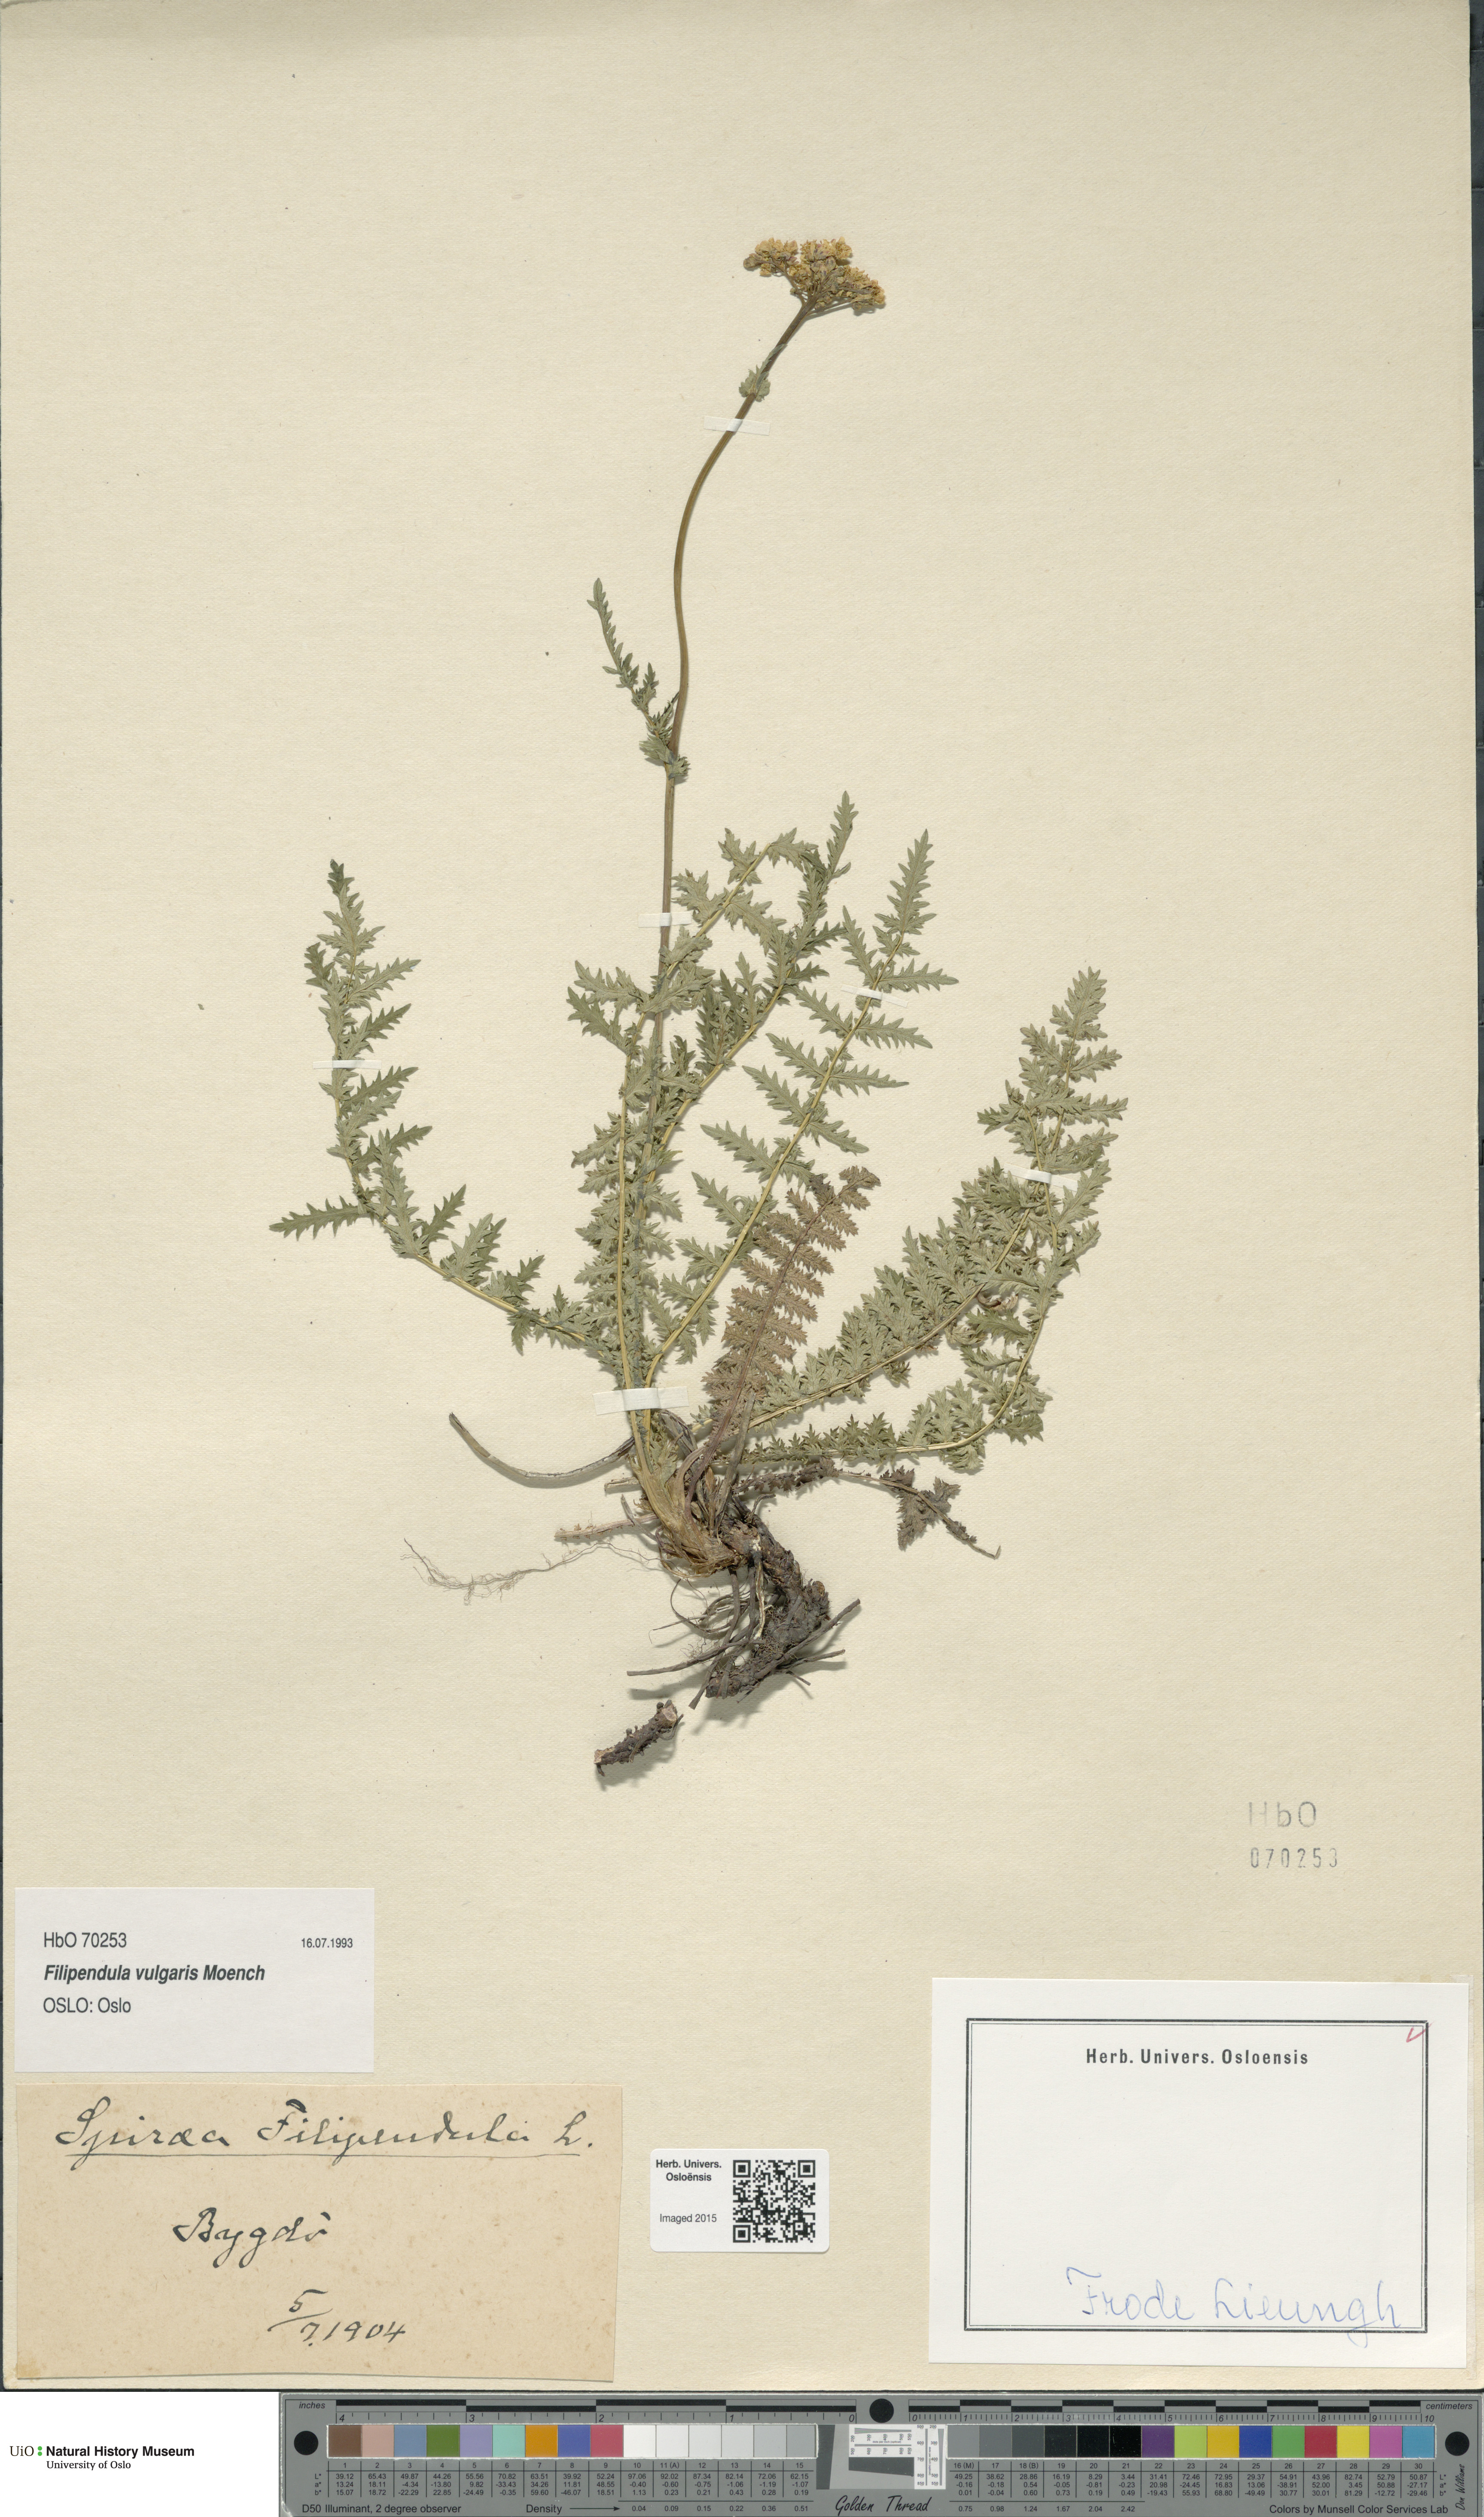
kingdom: Plantae
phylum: Tracheophyta
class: Magnoliopsida
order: Rosales
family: Rosaceae
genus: Filipendula
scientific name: Filipendula vulgaris
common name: Dropwort
